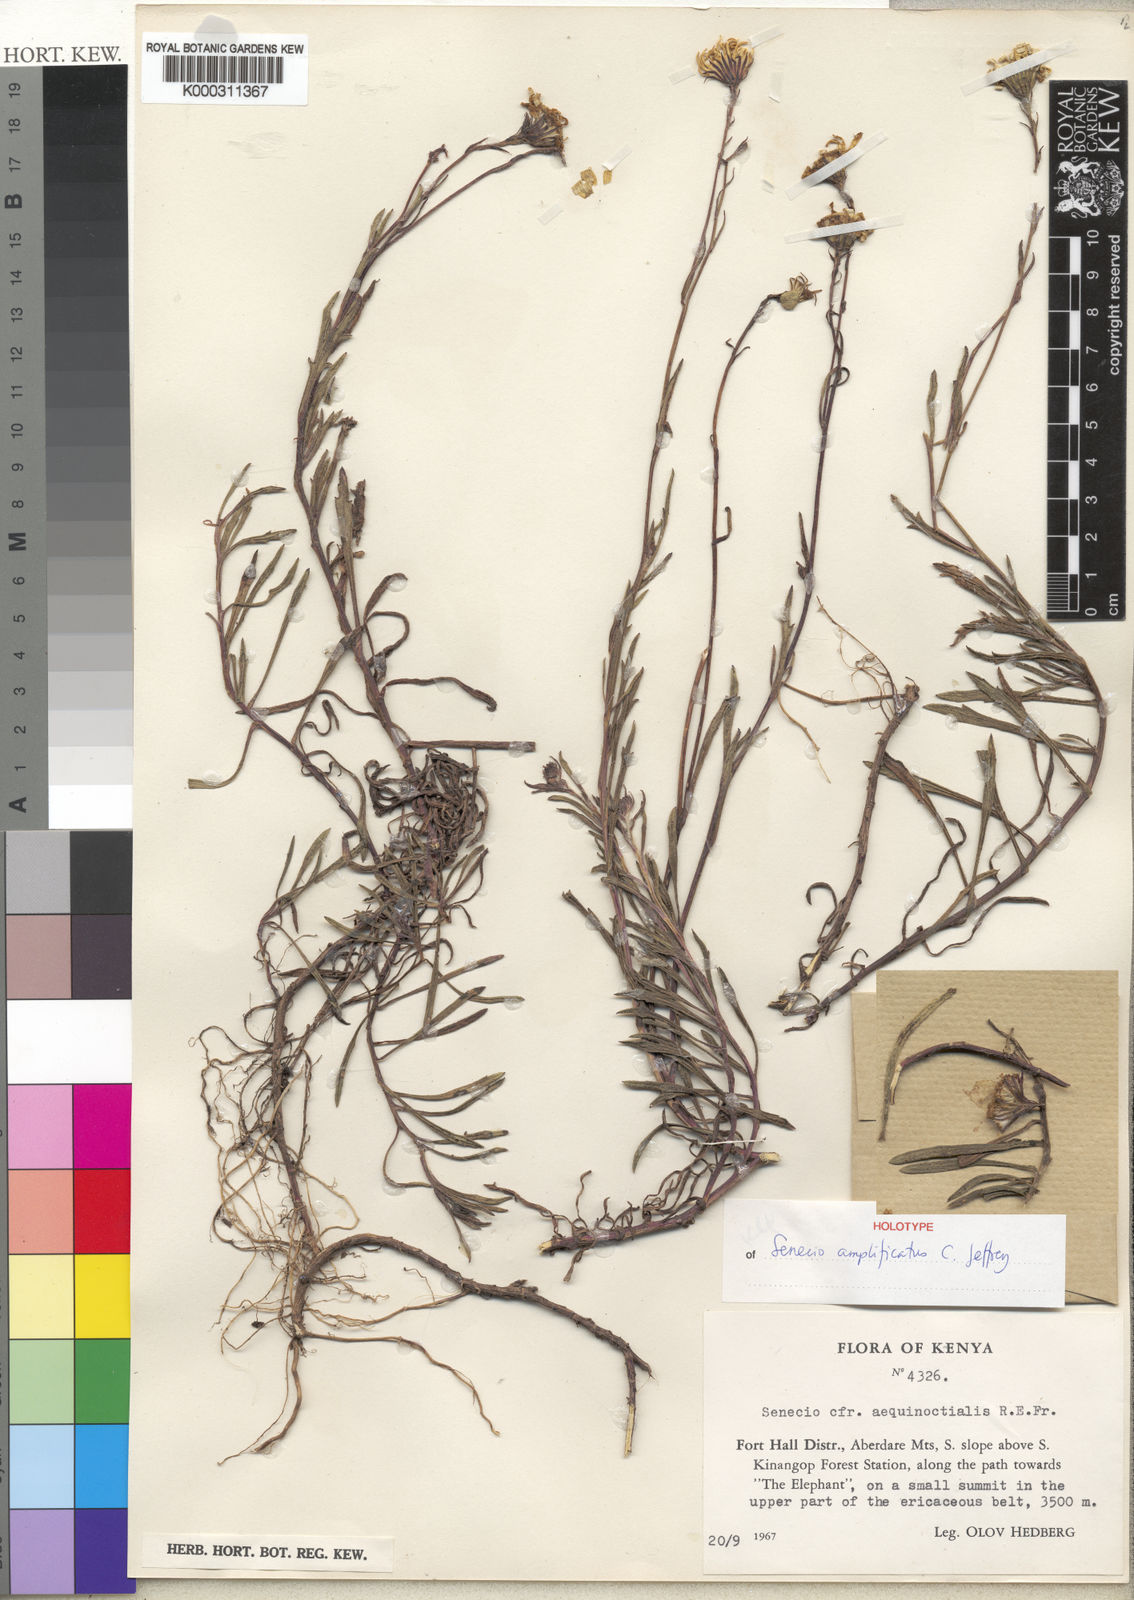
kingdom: Plantae
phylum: Tracheophyta
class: Magnoliopsida
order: Asterales
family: Asteraceae
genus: Senecio
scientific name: Senecio amplificatus
